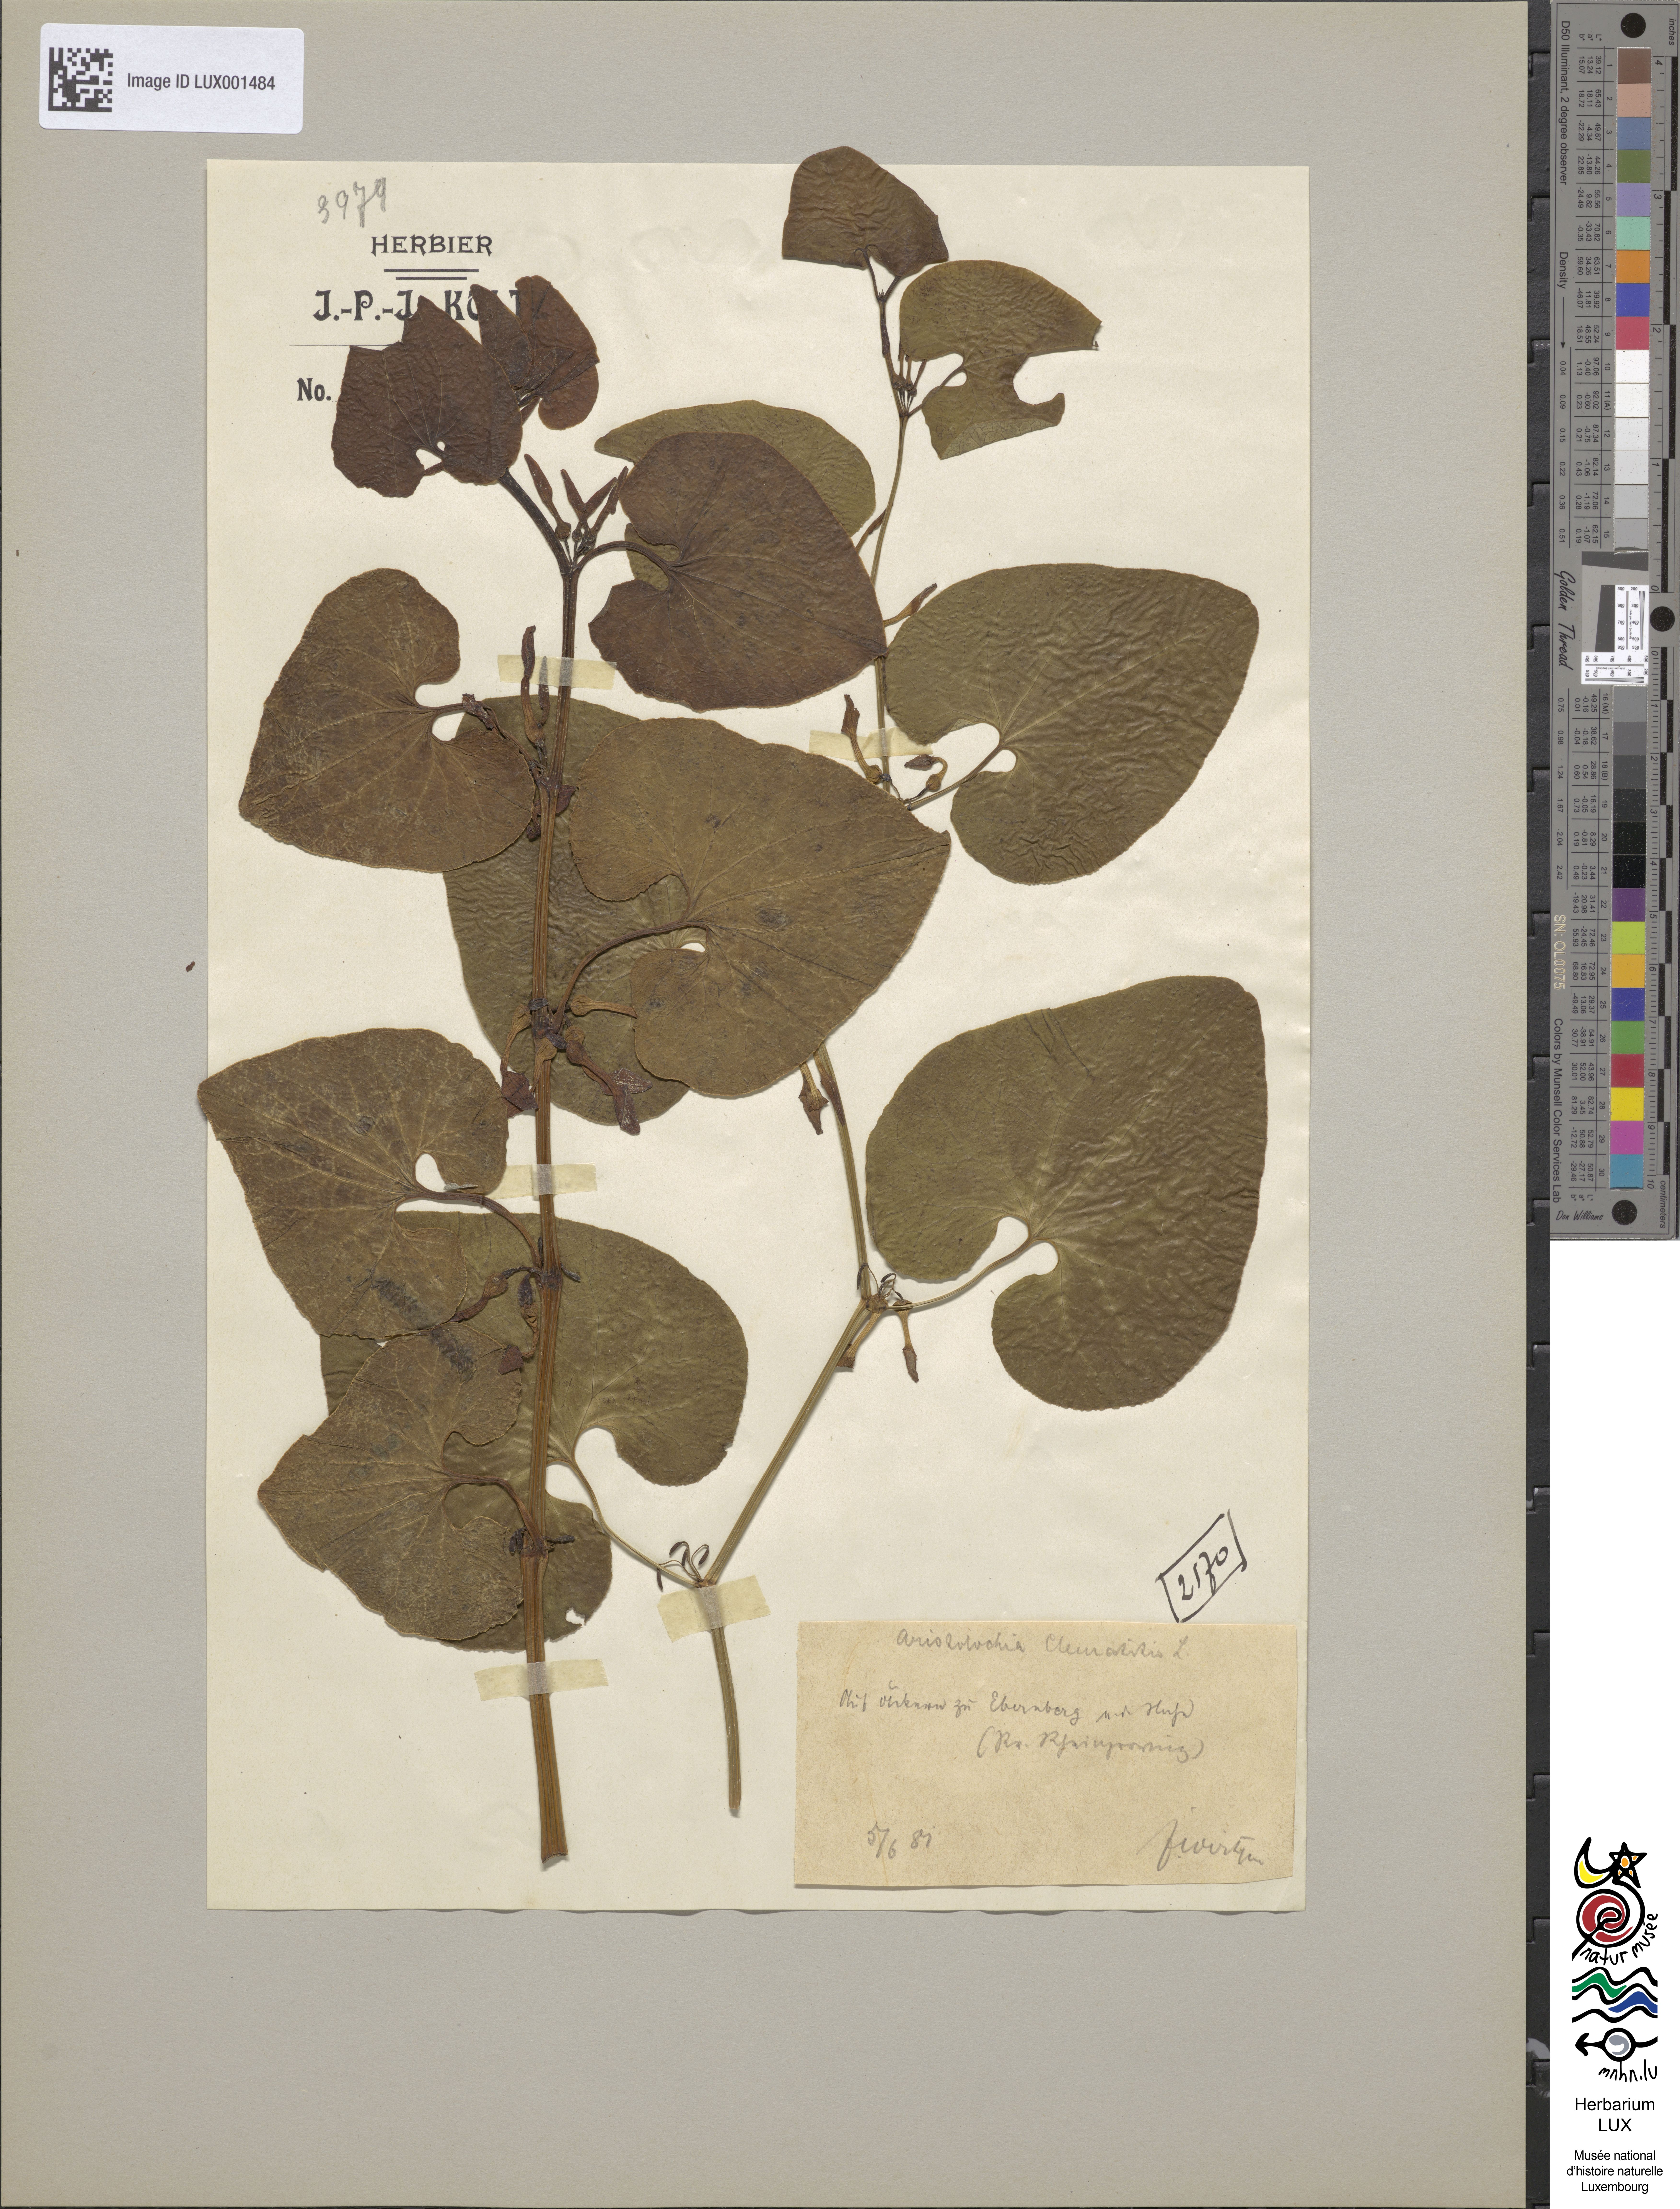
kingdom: Plantae
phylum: Tracheophyta
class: Magnoliopsida
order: Piperales
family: Aristolochiaceae
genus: Aristolochia
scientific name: Aristolochia clematitis
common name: Birthwort
